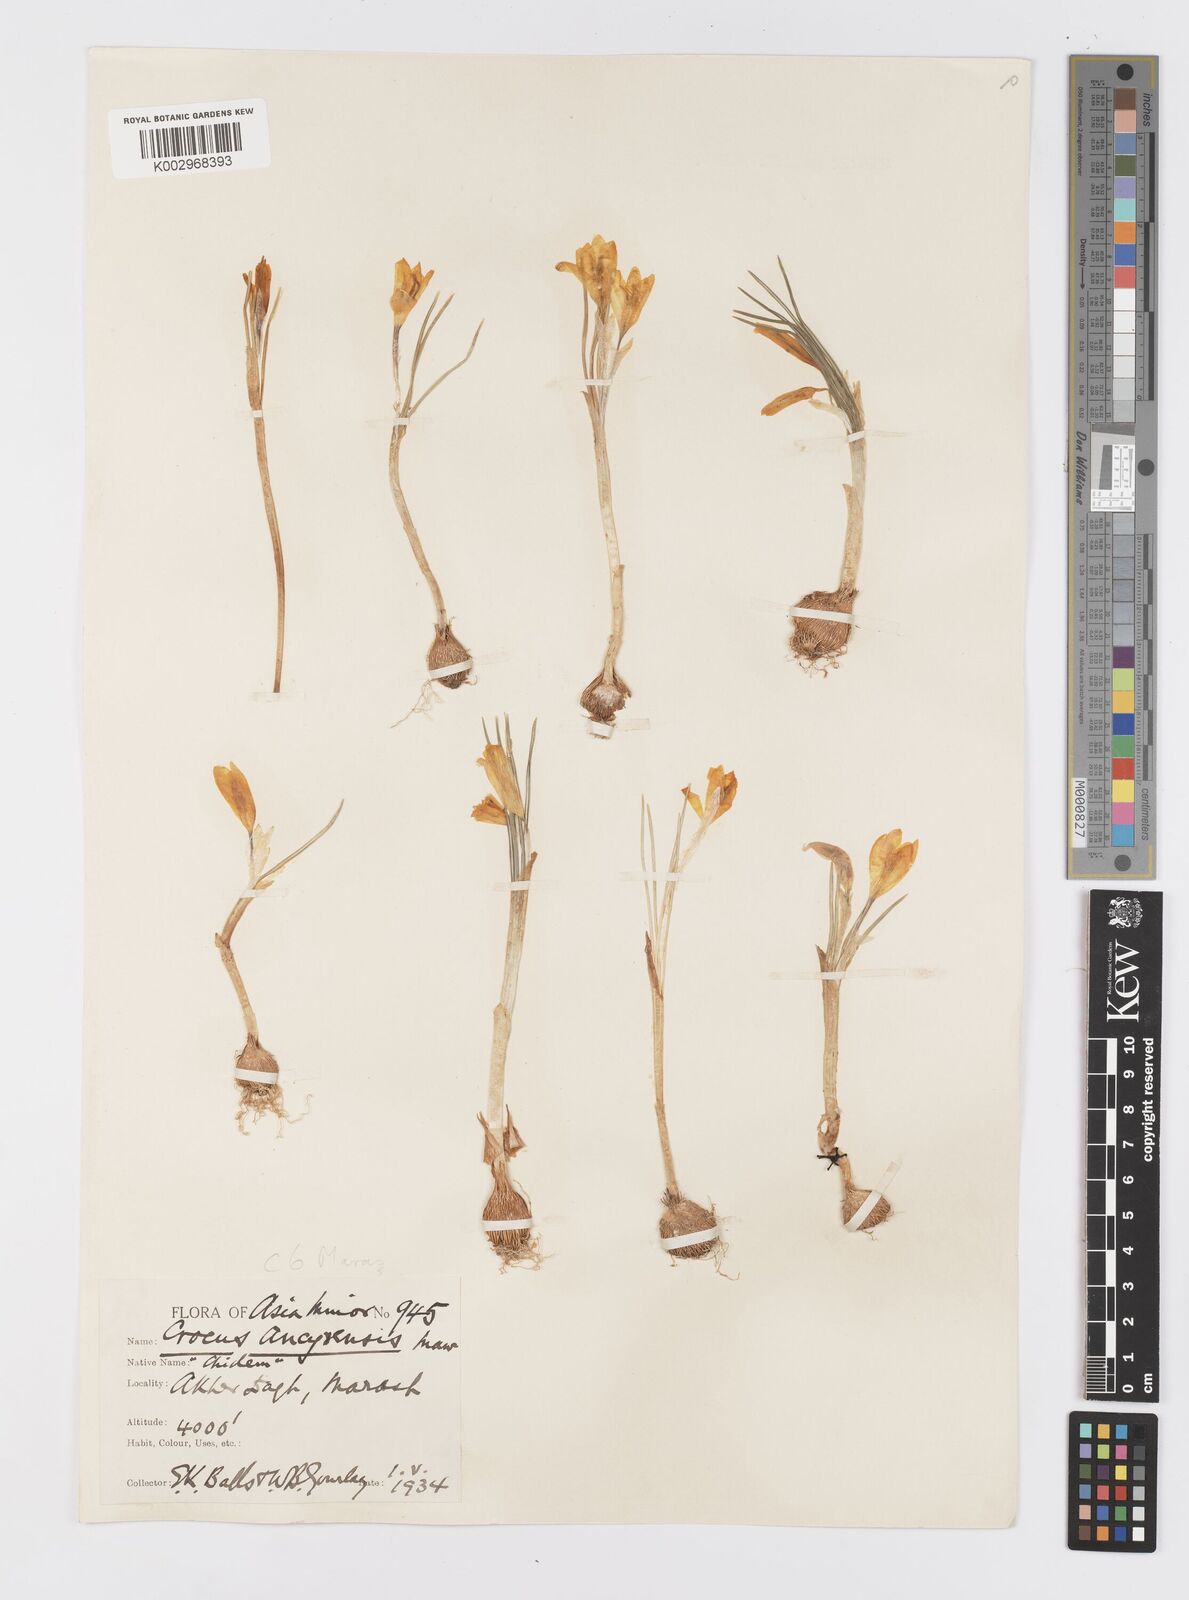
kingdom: Plantae
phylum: Tracheophyta
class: Liliopsida
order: Asparagales
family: Iridaceae
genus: Crocus
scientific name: Crocus ancyrensis
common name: Ankara crocus
